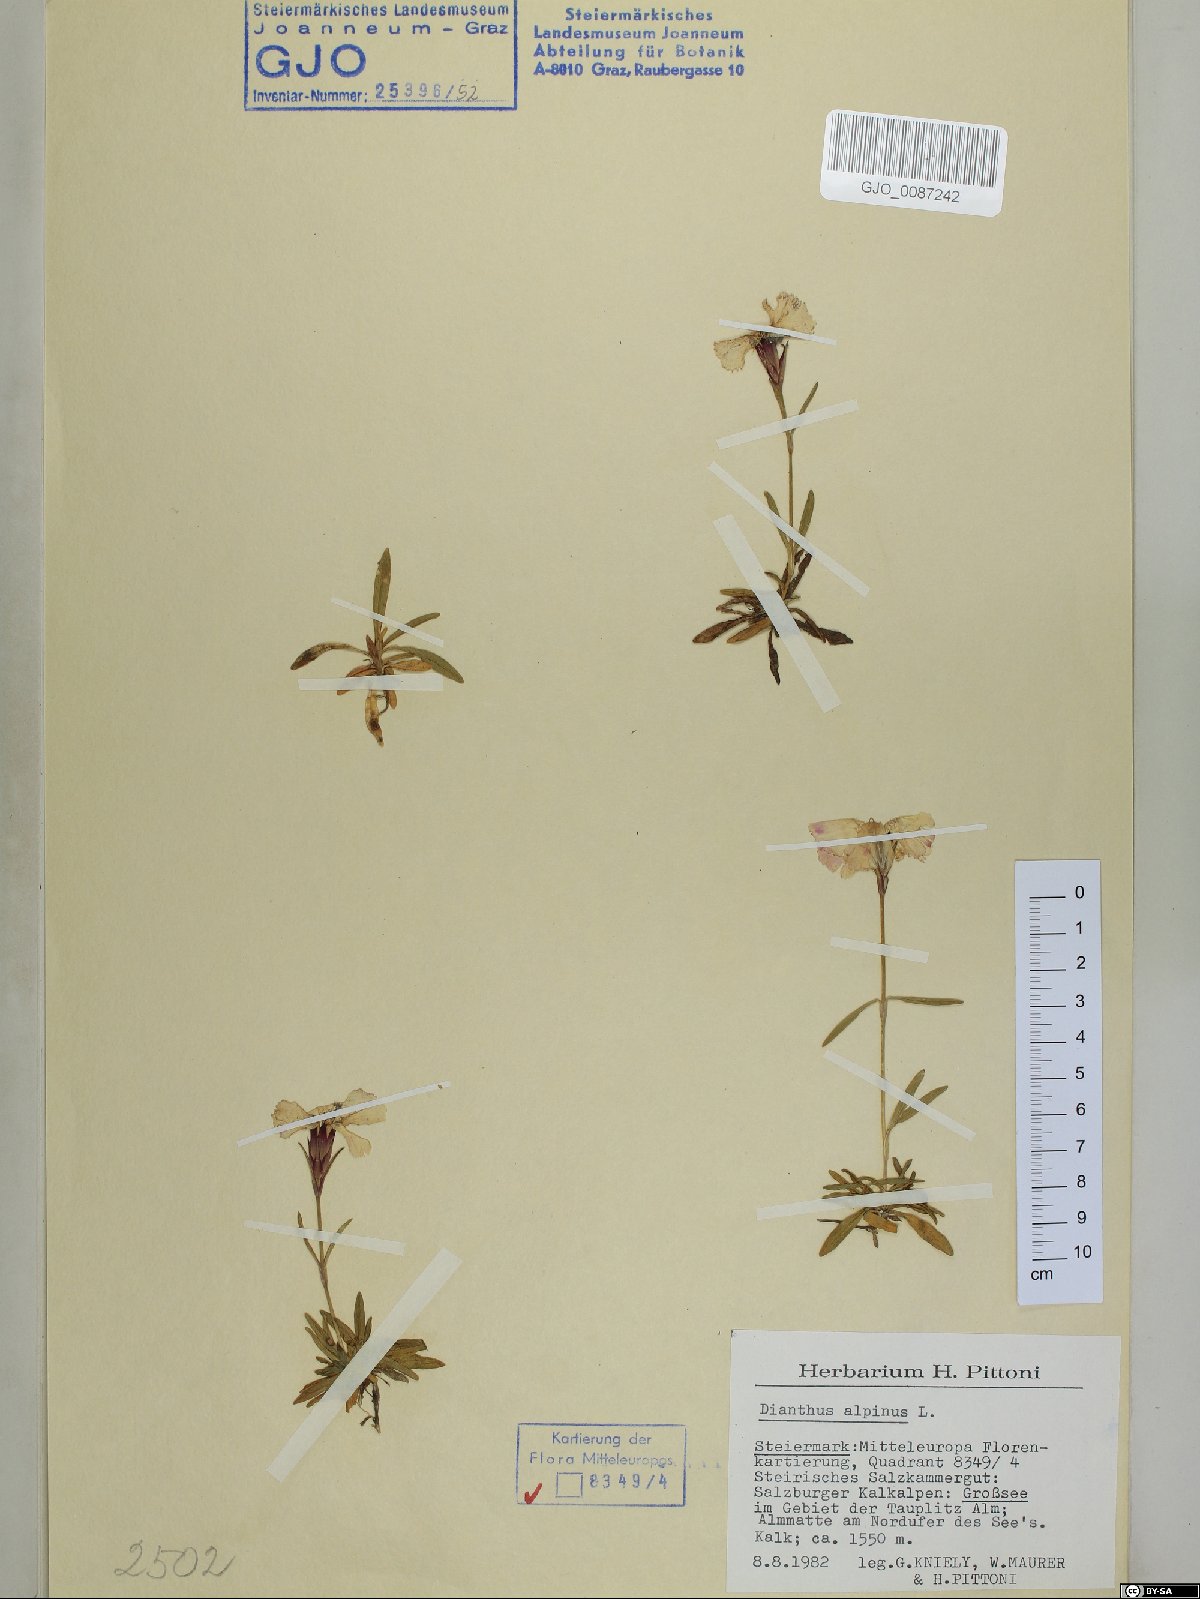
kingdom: Plantae
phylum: Tracheophyta
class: Magnoliopsida
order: Caryophyllales
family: Caryophyllaceae
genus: Dianthus
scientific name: Dianthus alpinus
